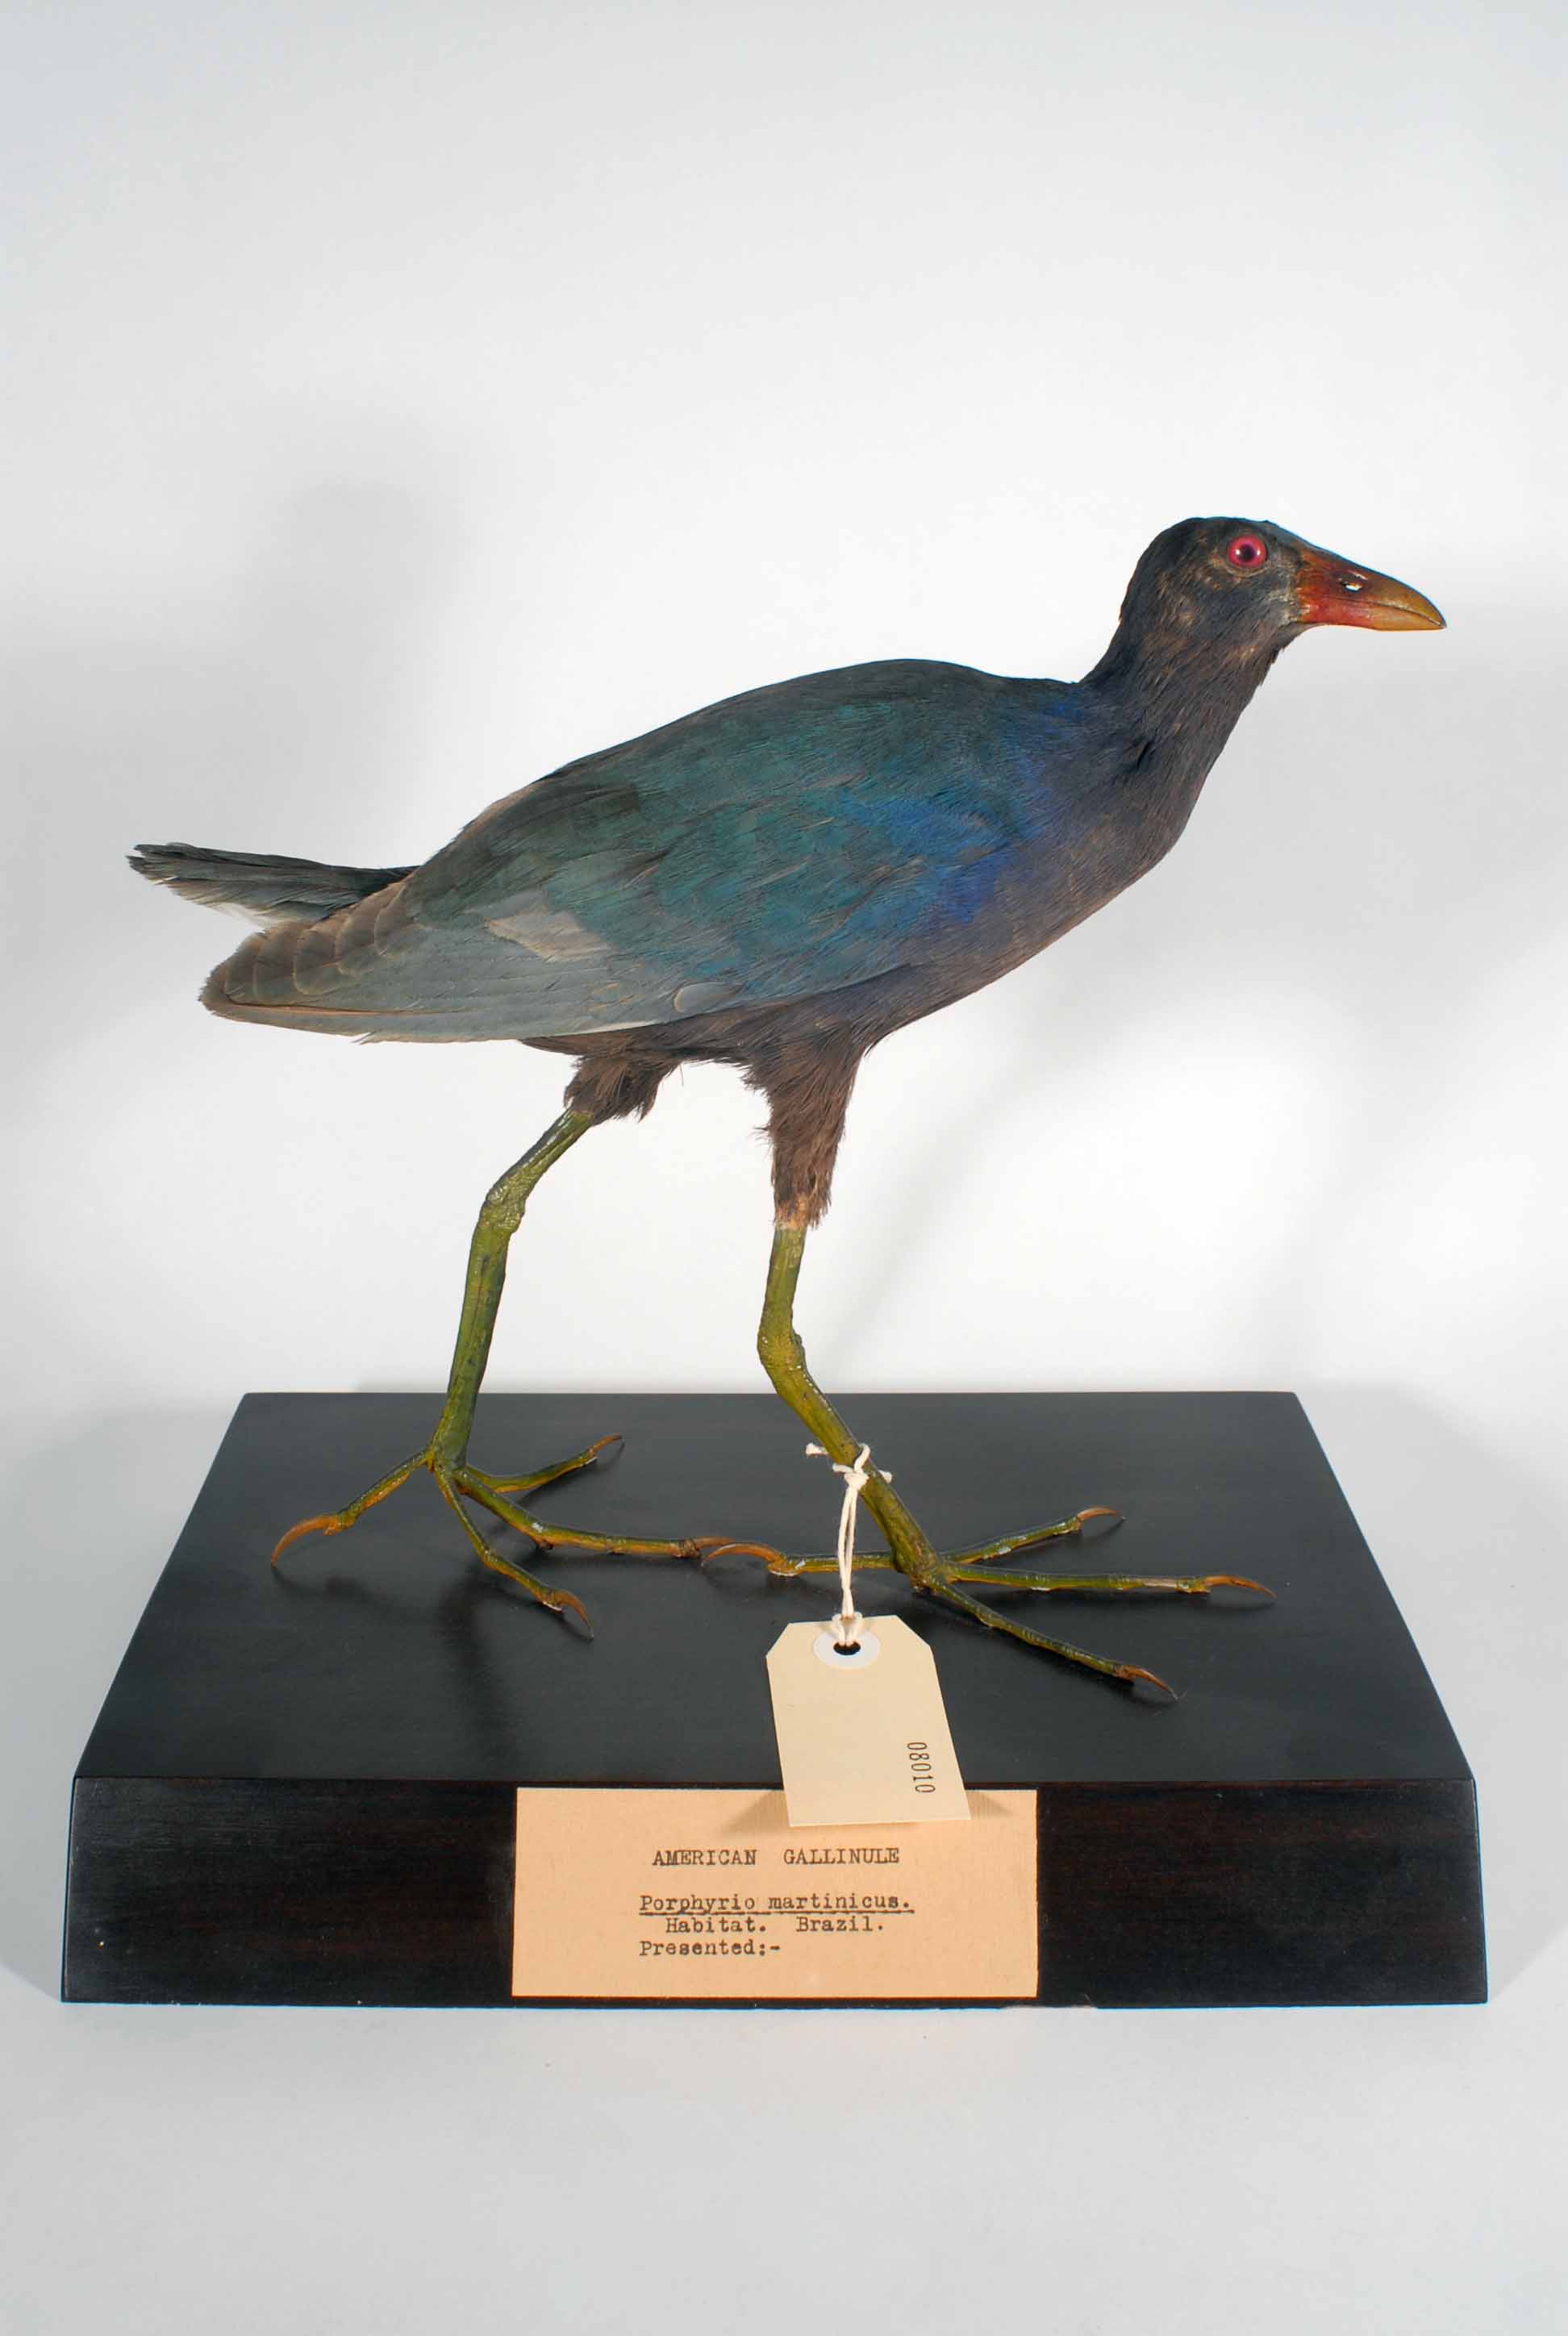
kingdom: Animalia
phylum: Chordata
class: Aves
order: Gruiformes
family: Rallidae
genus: Gallinula
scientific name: Gallinula
